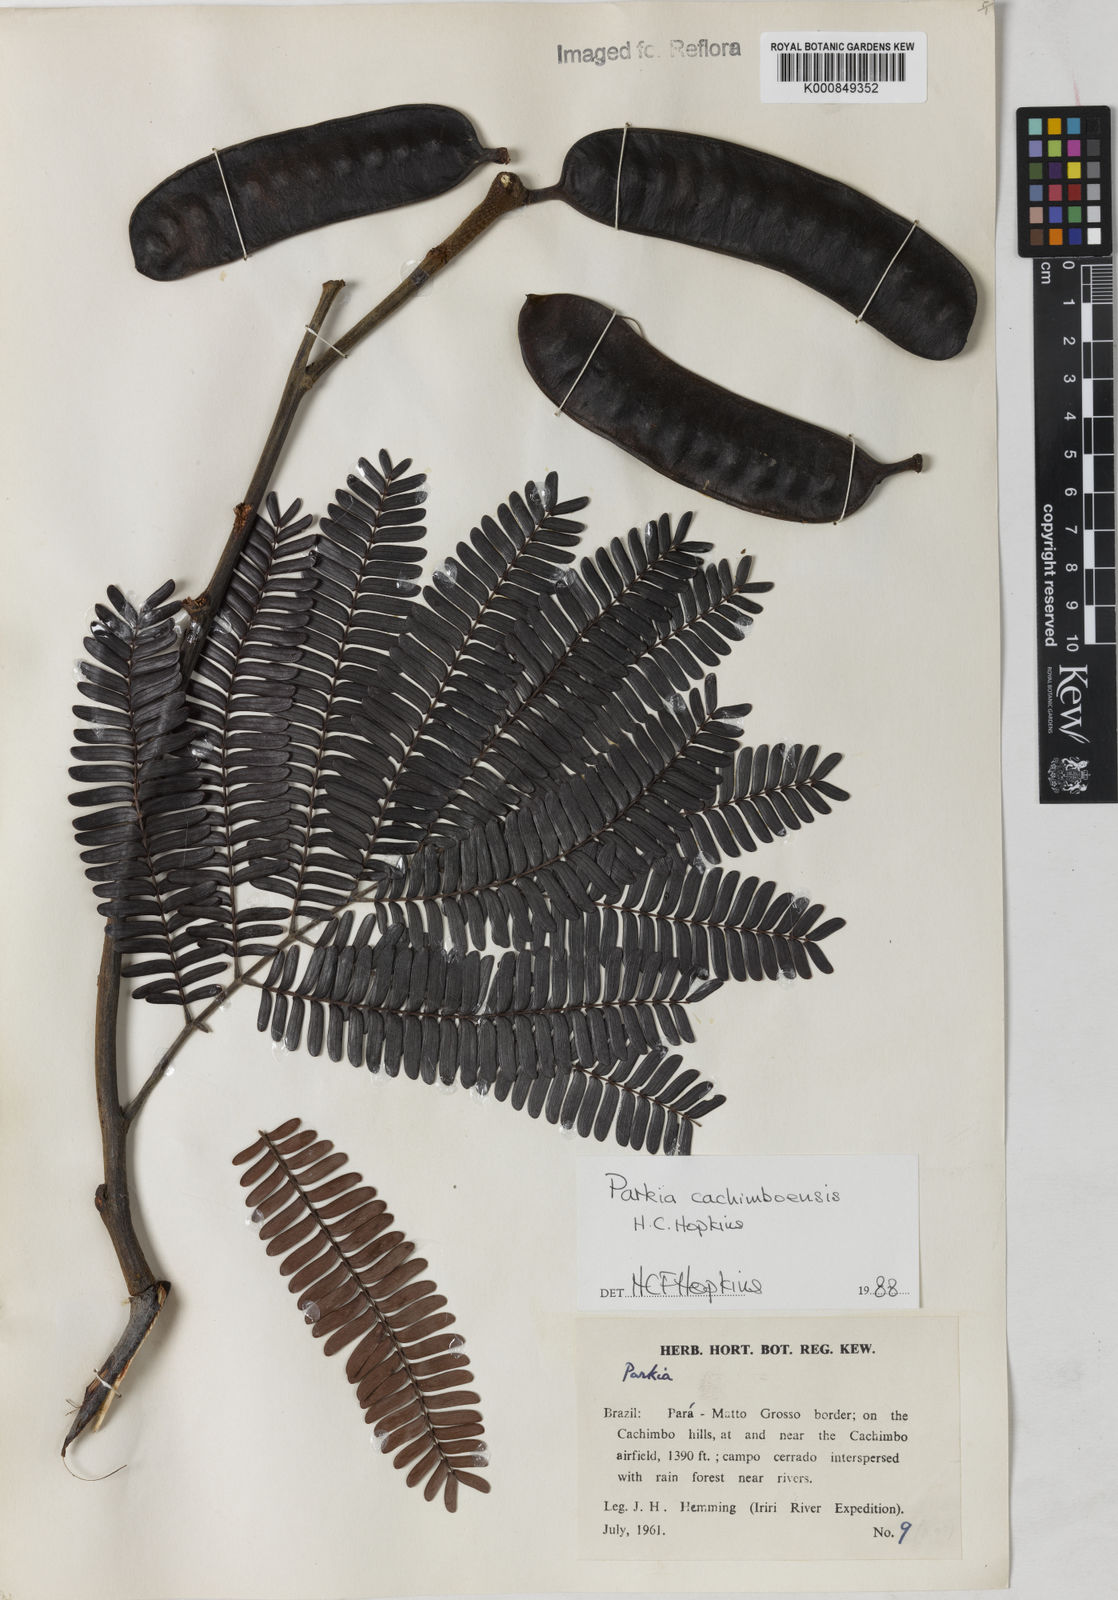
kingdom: Plantae
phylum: Tracheophyta
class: Magnoliopsida
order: Fabales
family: Fabaceae
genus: Parkia
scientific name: Parkia cachimboensis
